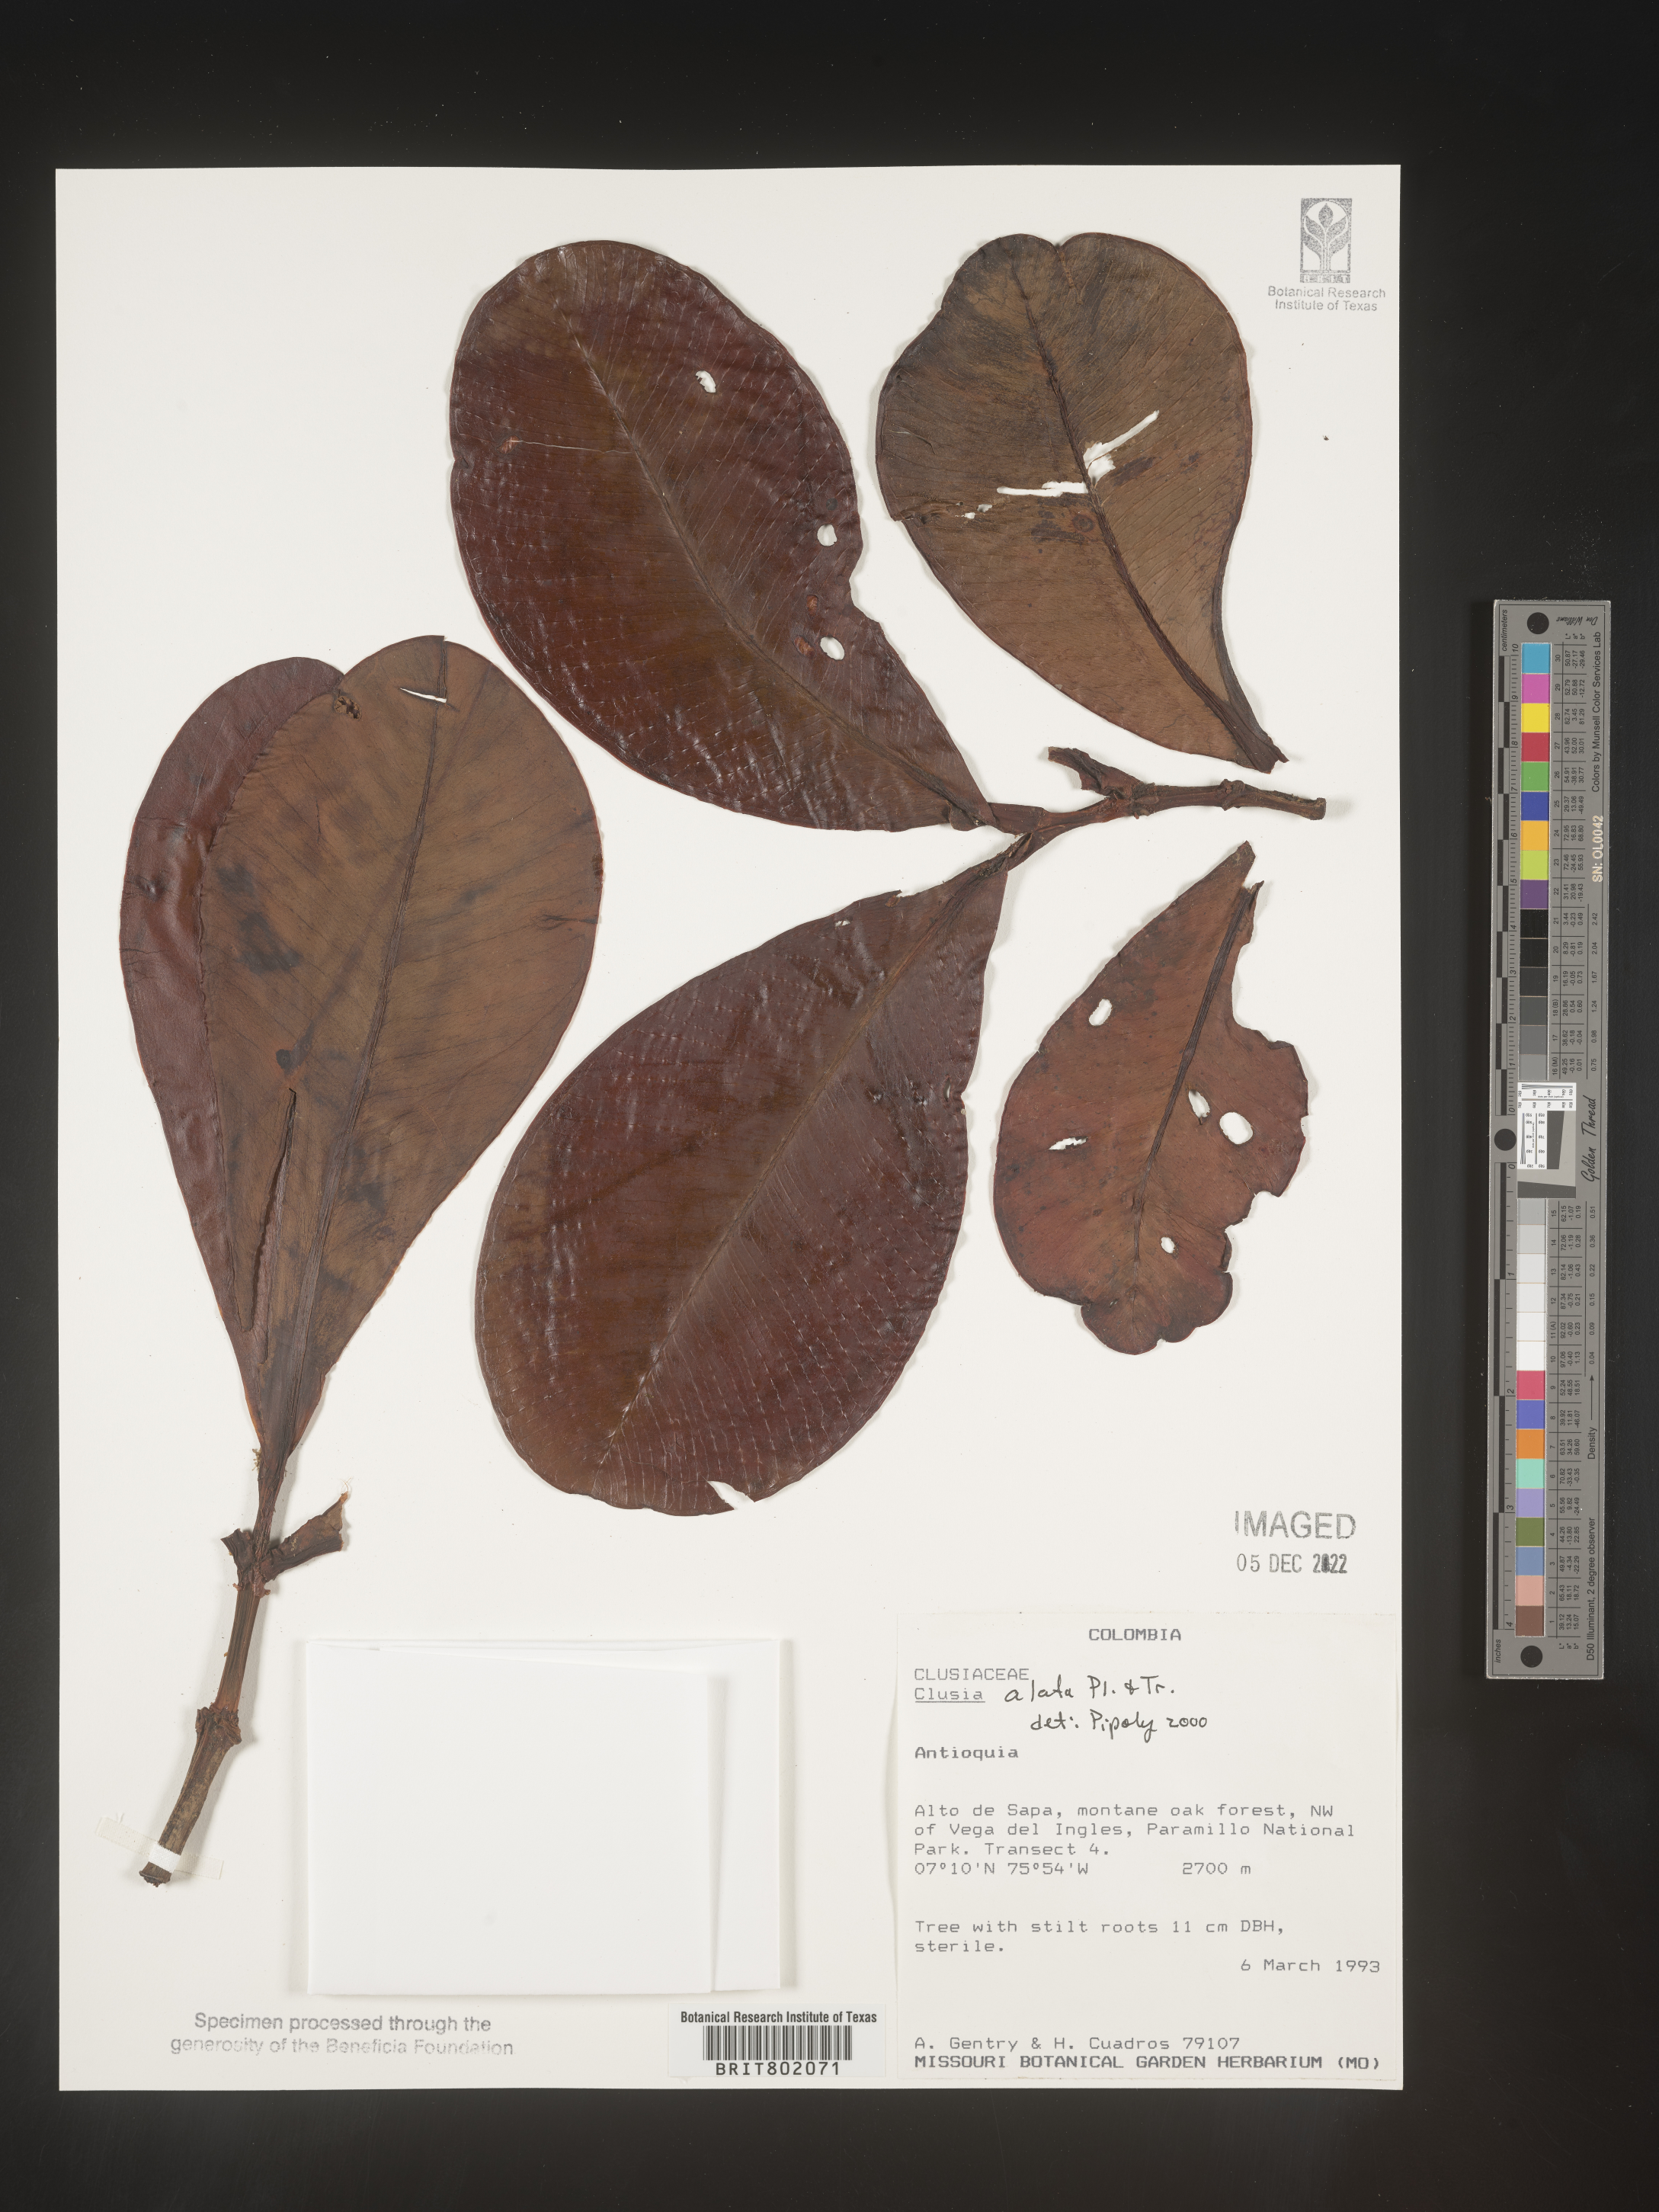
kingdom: Plantae
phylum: Tracheophyta
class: Magnoliopsida
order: Malpighiales
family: Clusiaceae
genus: Clusia
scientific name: Clusia alata
